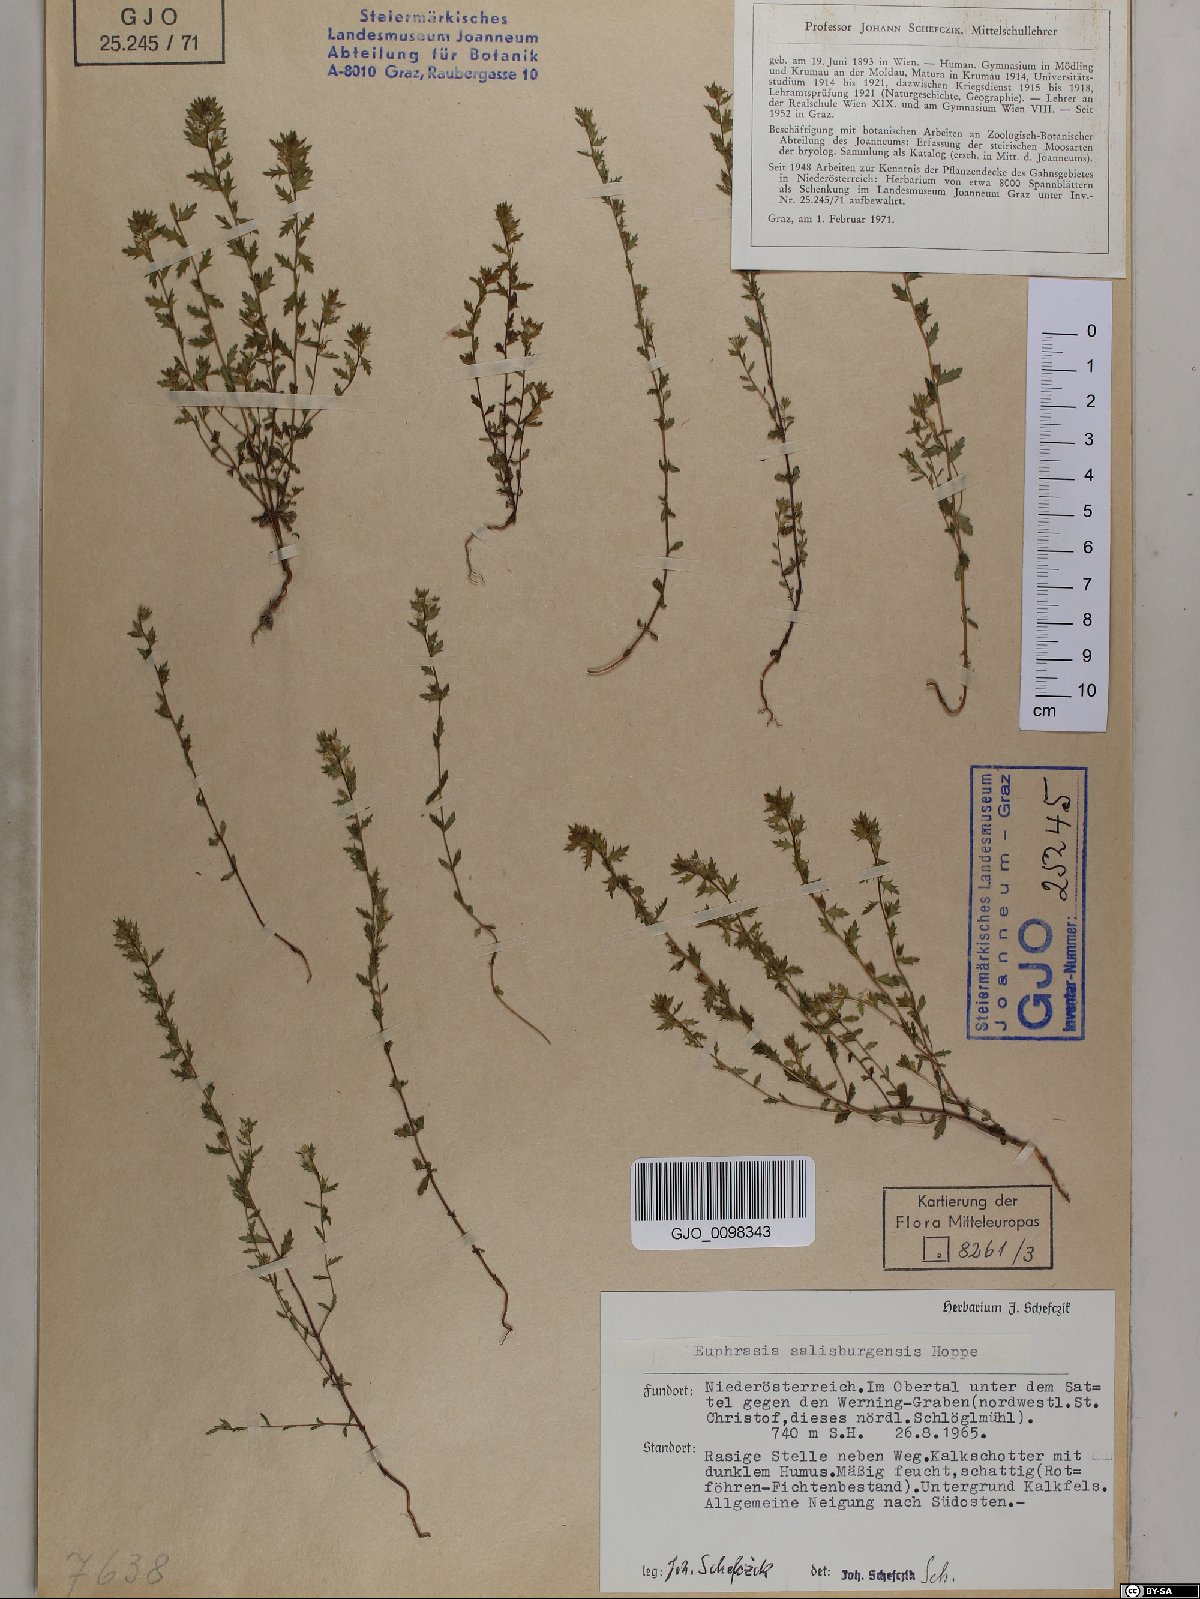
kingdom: Plantae
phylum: Tracheophyta
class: Magnoliopsida
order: Lamiales
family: Orobanchaceae
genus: Euphrasia
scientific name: Euphrasia salisburgensis
